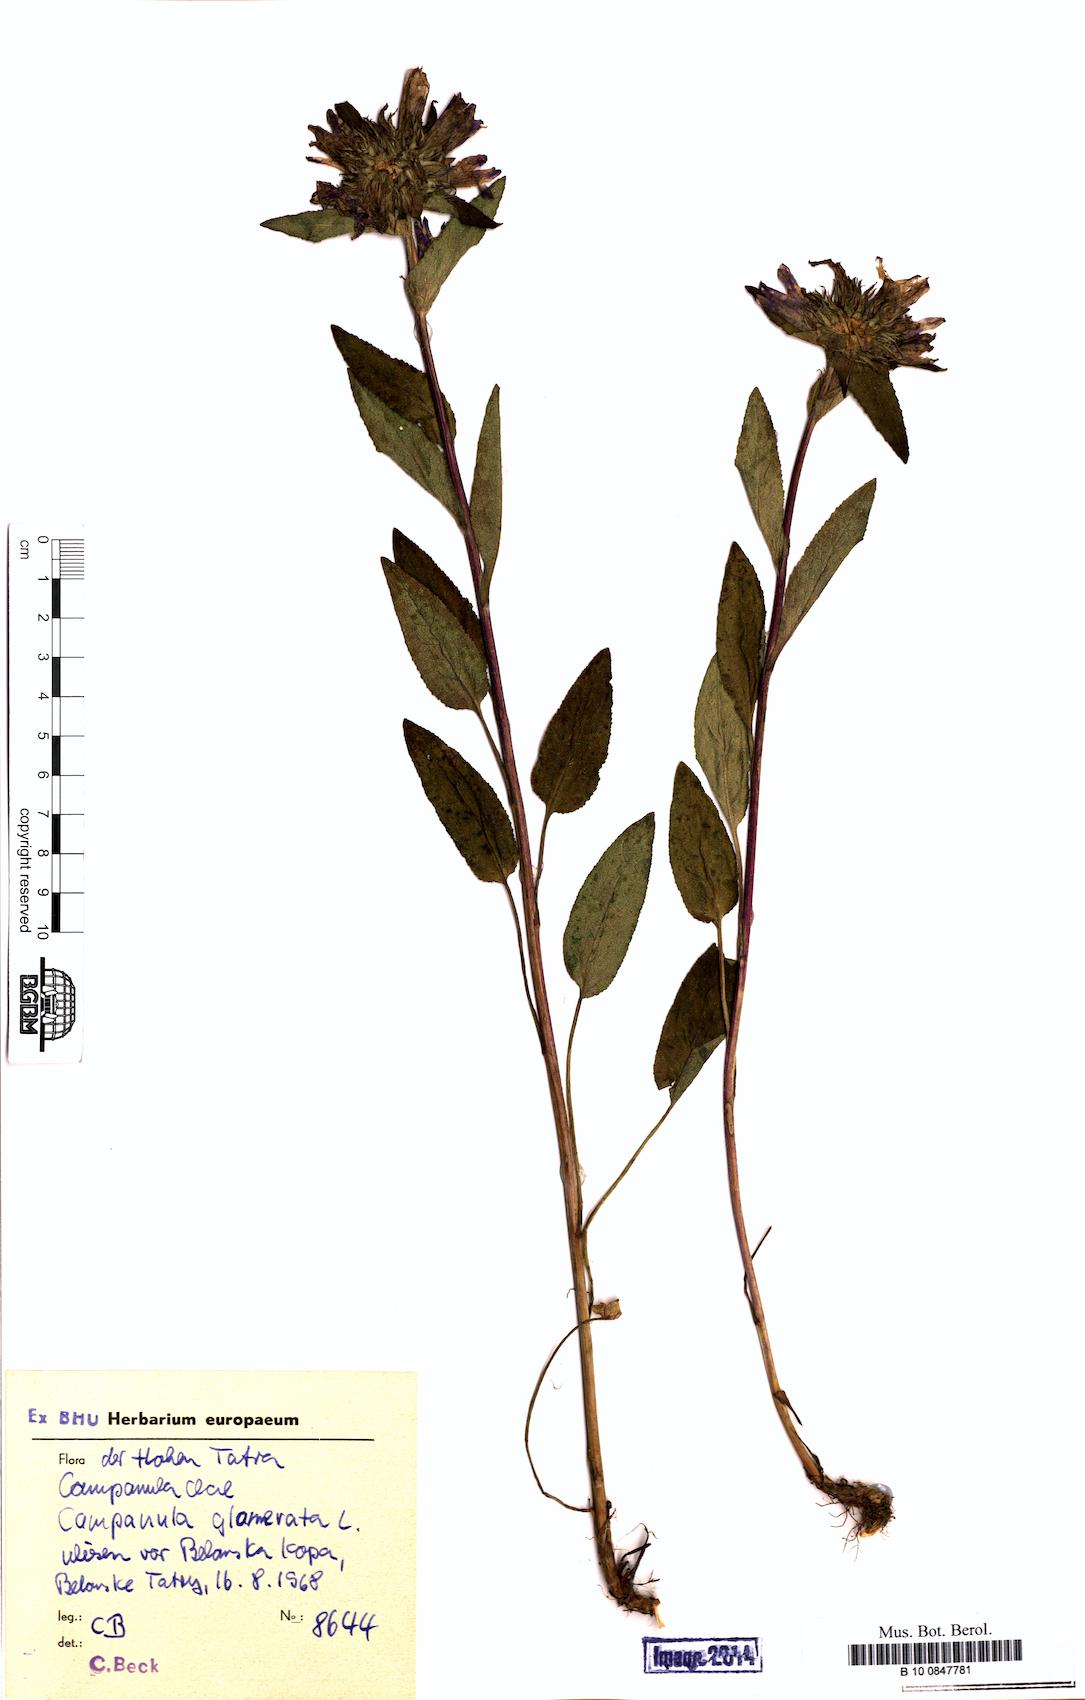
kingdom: Plantae
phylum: Tracheophyta
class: Magnoliopsida
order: Asterales
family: Campanulaceae
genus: Campanula
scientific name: Campanula glomerata
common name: Clustered bellflower
